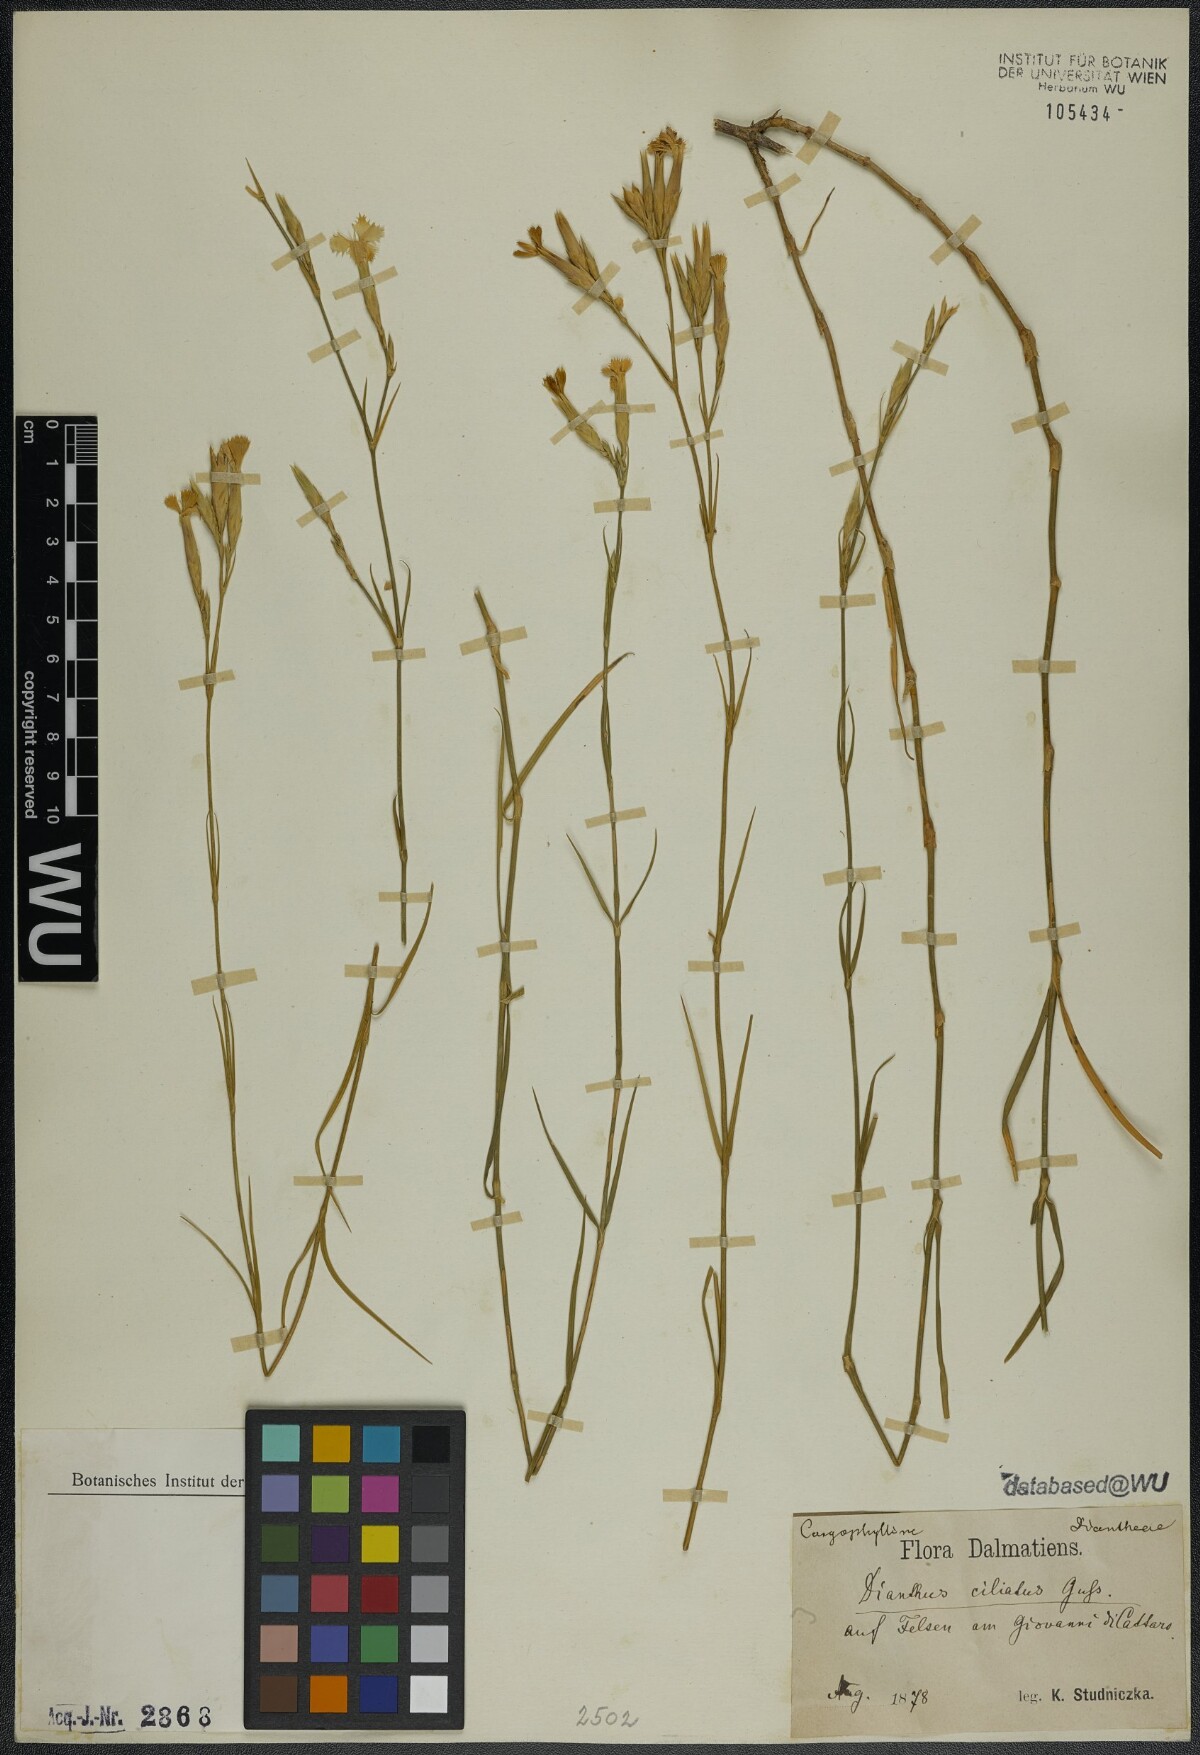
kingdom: Plantae
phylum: Tracheophyta
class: Magnoliopsida
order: Caryophyllales
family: Caryophyllaceae
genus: Dianthus
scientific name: Dianthus ciliatus
